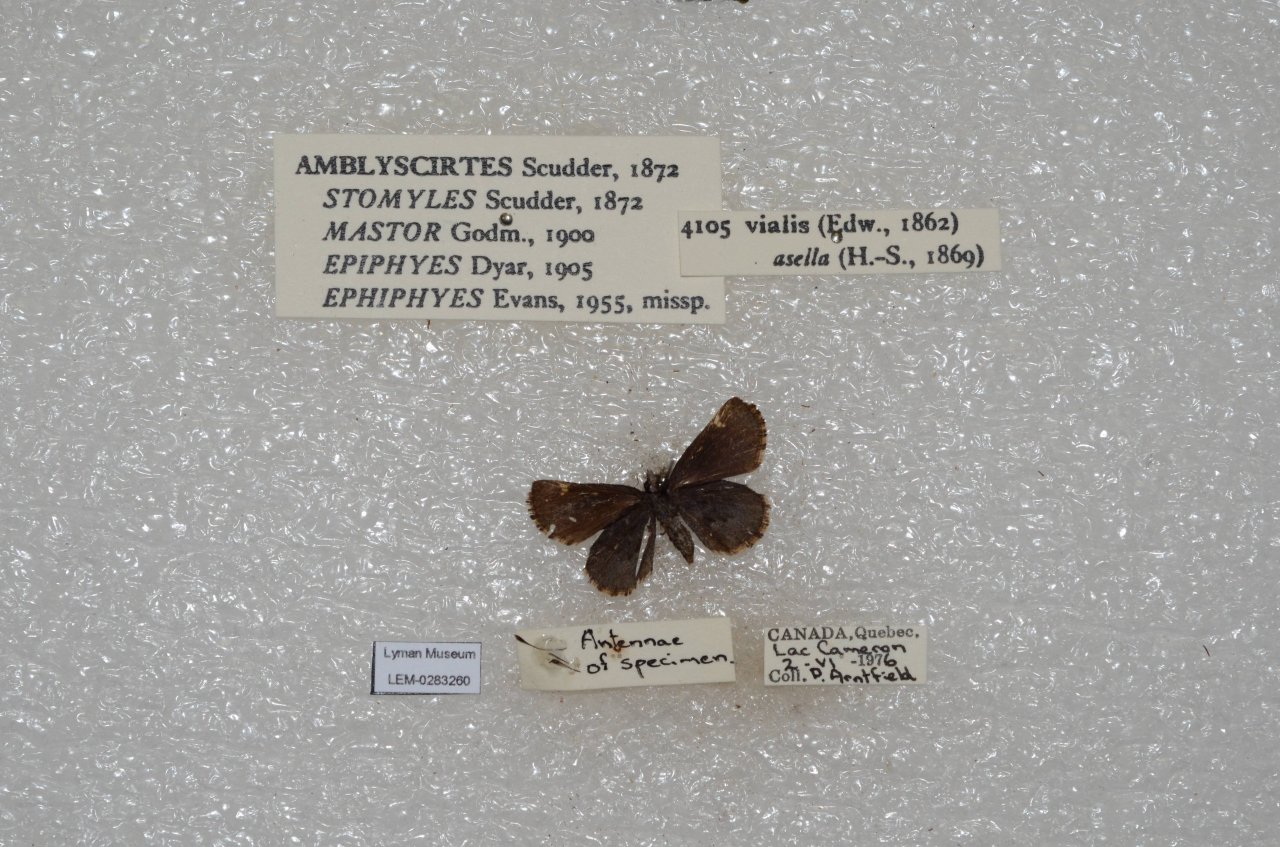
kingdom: Animalia
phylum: Arthropoda
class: Insecta
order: Lepidoptera
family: Hesperiidae
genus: Mastor
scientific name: Mastor vialis
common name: Common Roadside-Skipper
